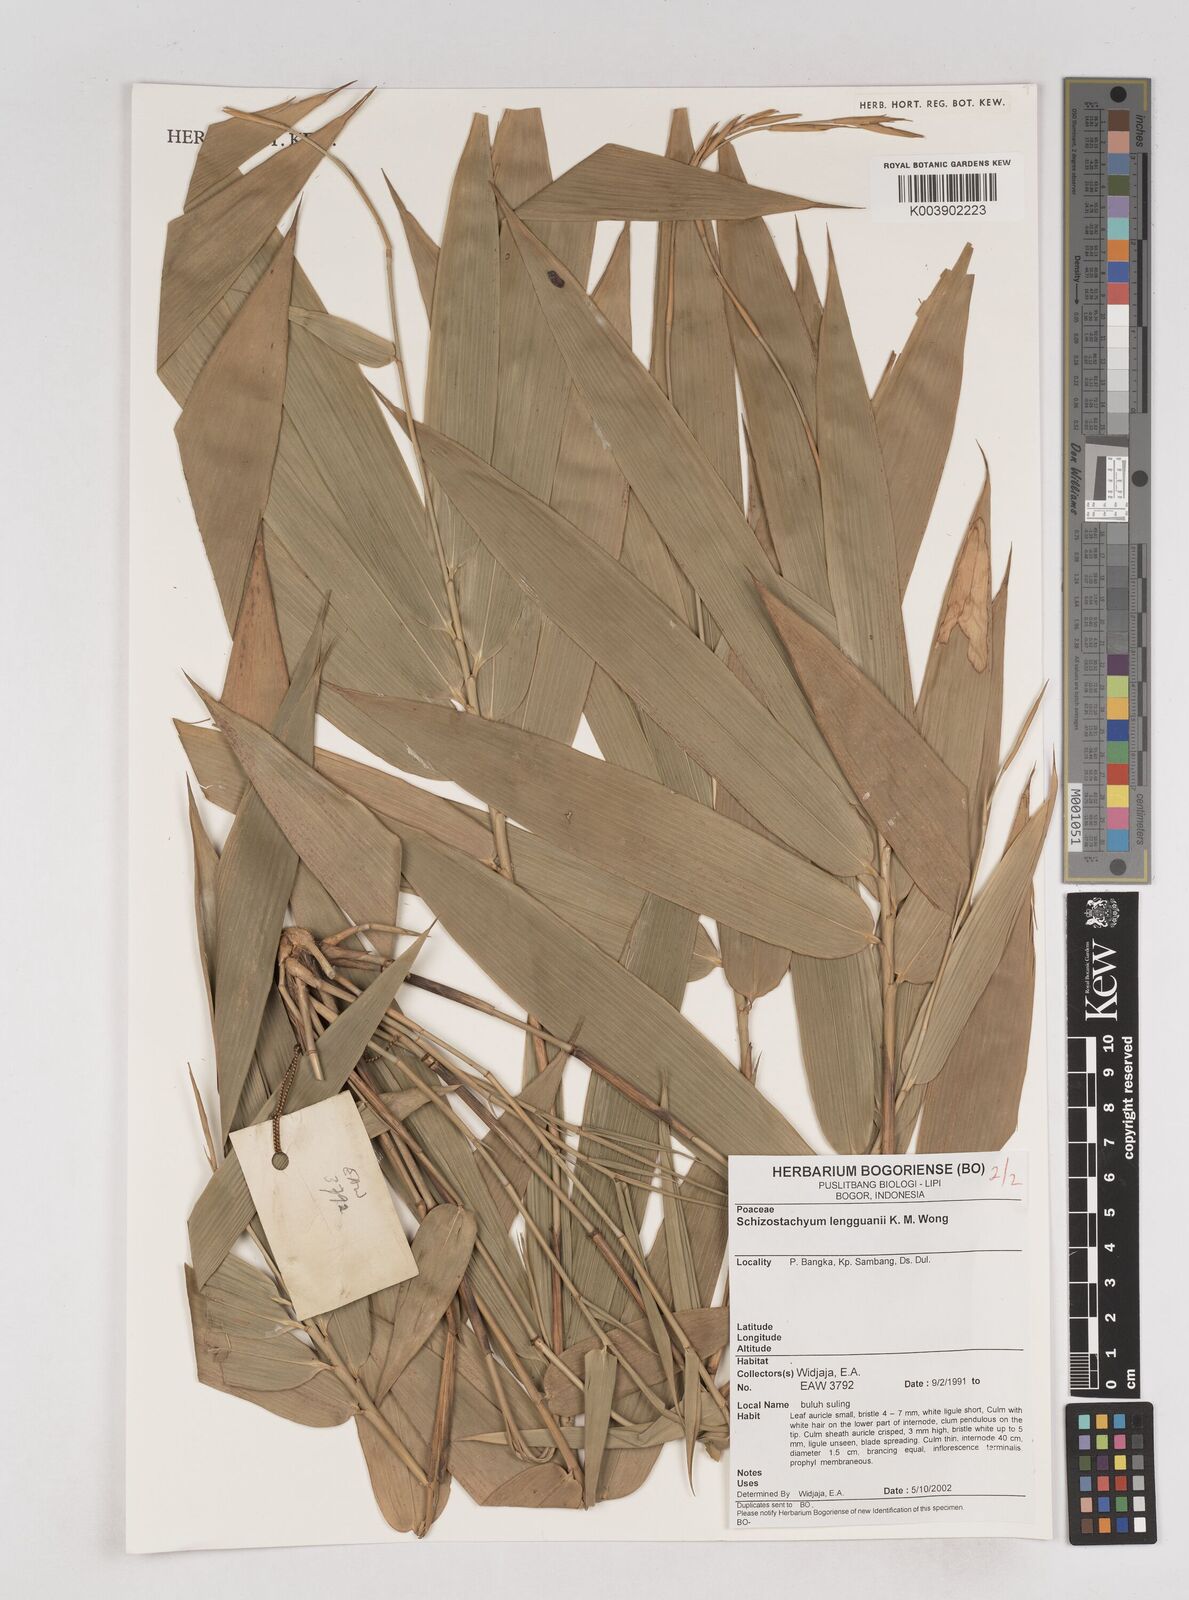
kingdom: Plantae
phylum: Tracheophyta
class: Liliopsida
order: Poales
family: Poaceae
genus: Schizostachyum
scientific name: Schizostachyum lengguanii
